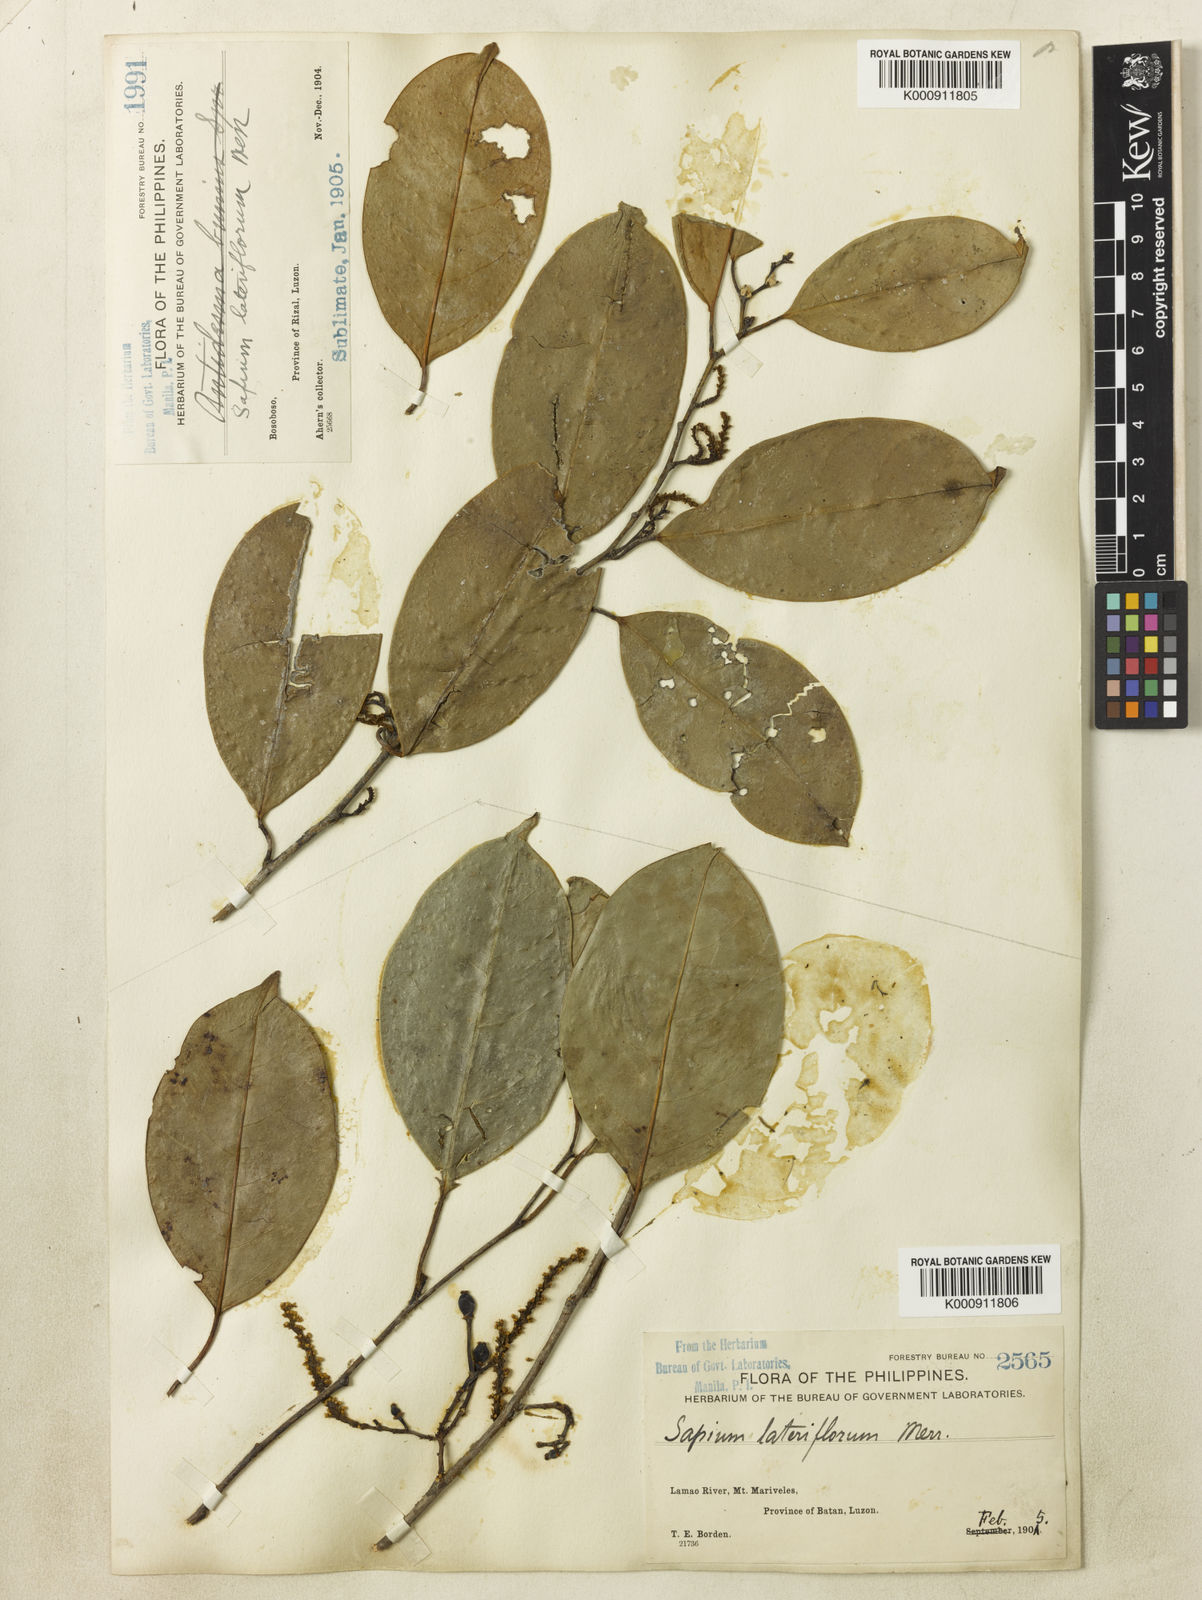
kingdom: Plantae
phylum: Tracheophyta
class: Magnoliopsida
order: Malpighiales
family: Euphorbiaceae
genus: Balakata
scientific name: Balakata luzonica
